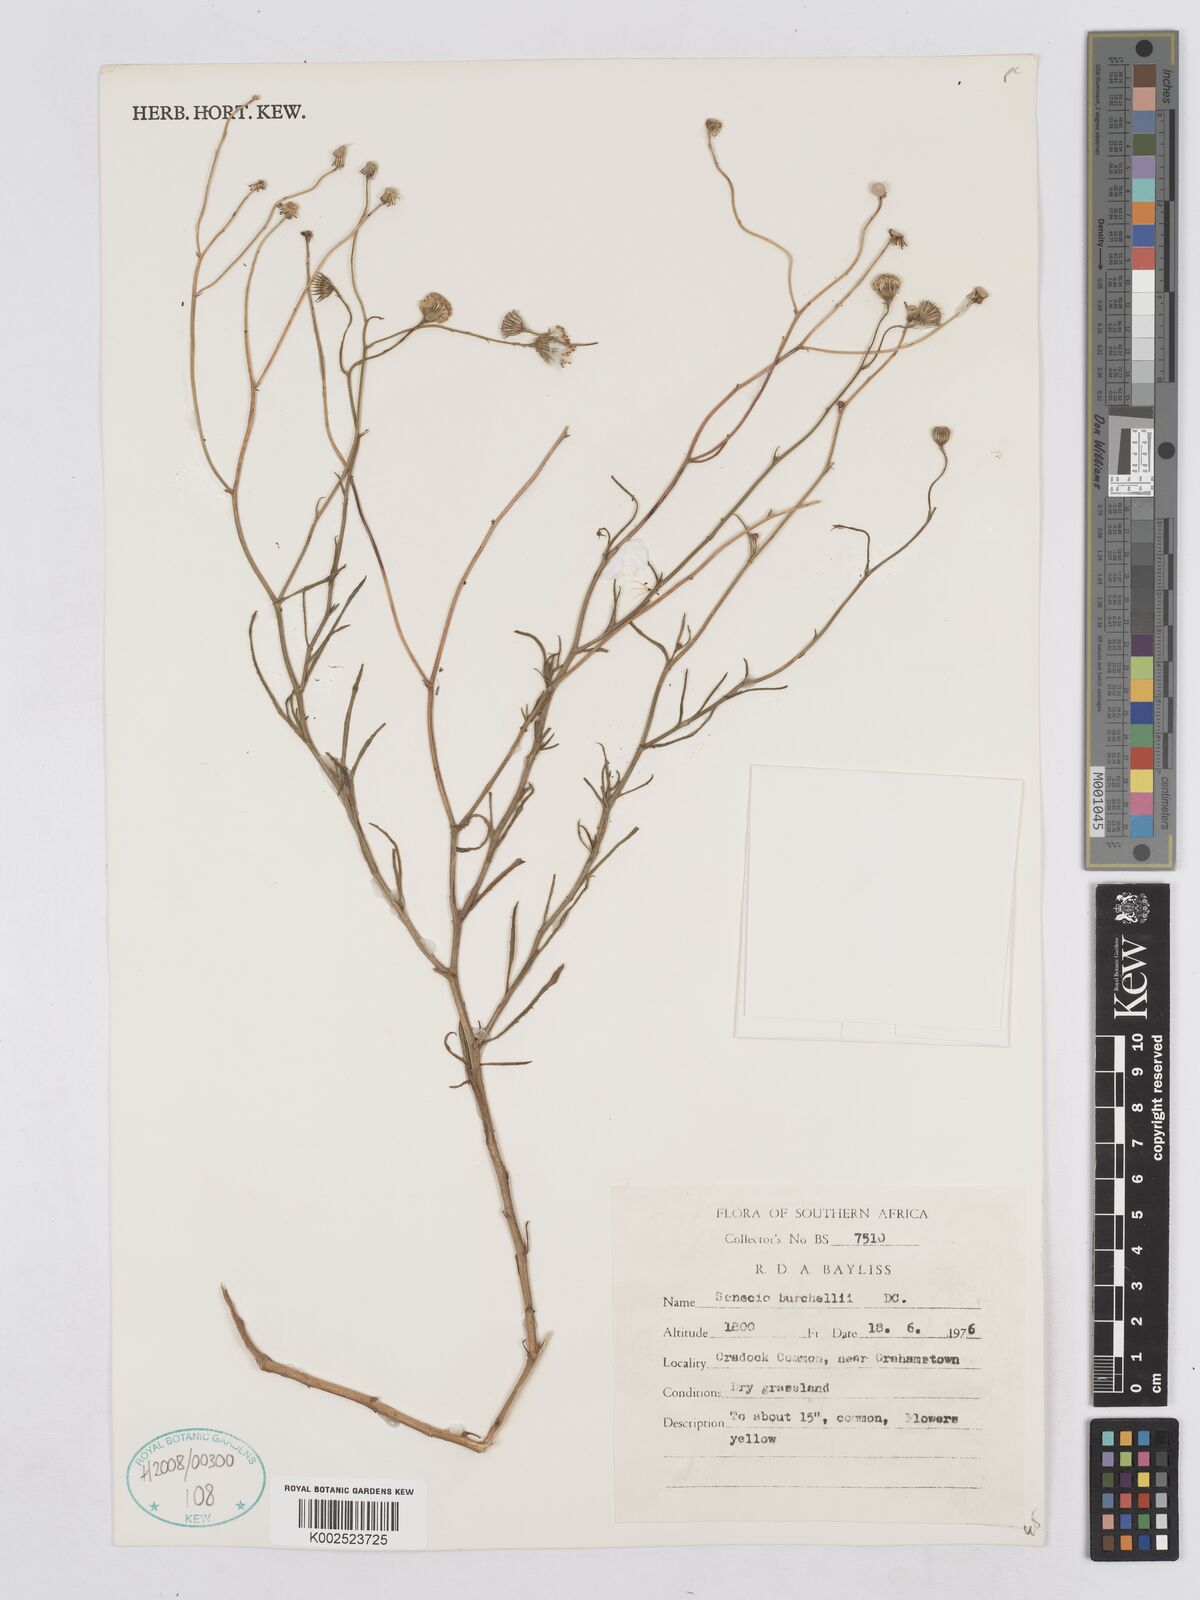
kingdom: Plantae
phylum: Tracheophyta
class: Magnoliopsida
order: Asterales
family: Asteraceae
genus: Senecio
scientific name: Senecio burchellii
